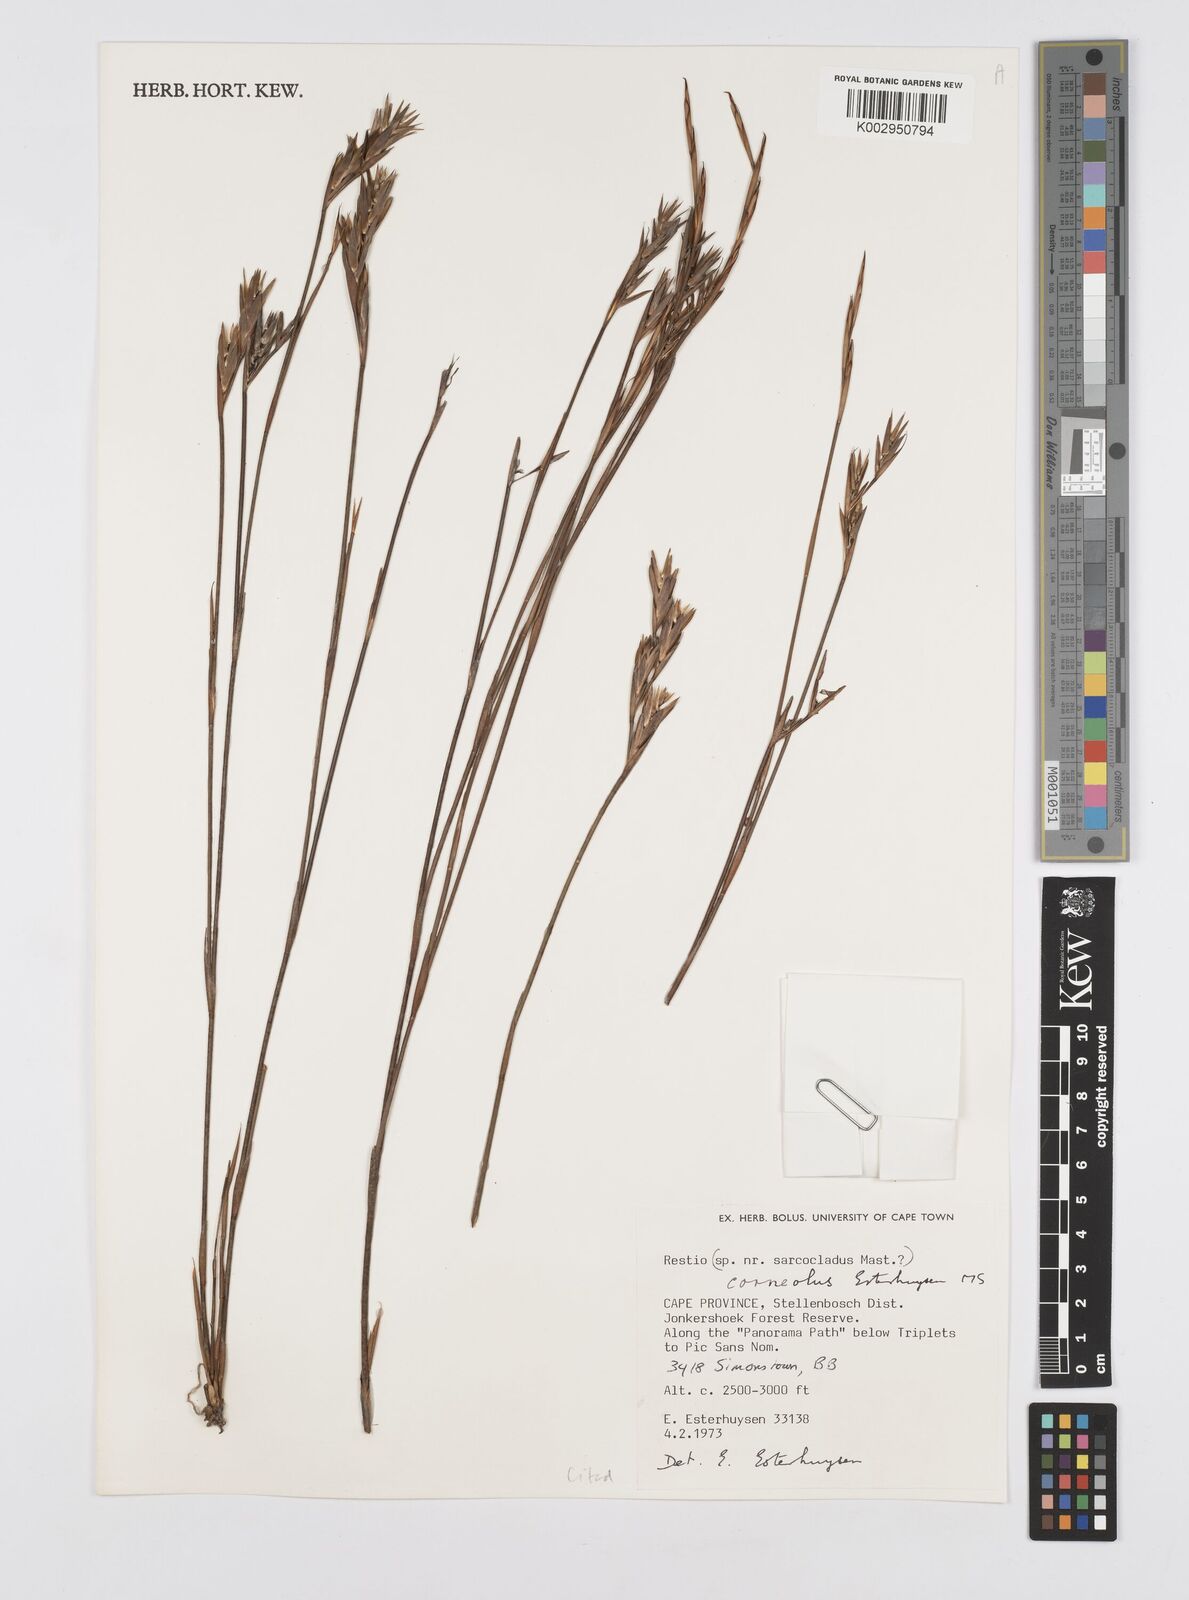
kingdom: Plantae
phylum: Tracheophyta
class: Liliopsida
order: Poales
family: Restionaceae
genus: Restio
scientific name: Restio corneolus
